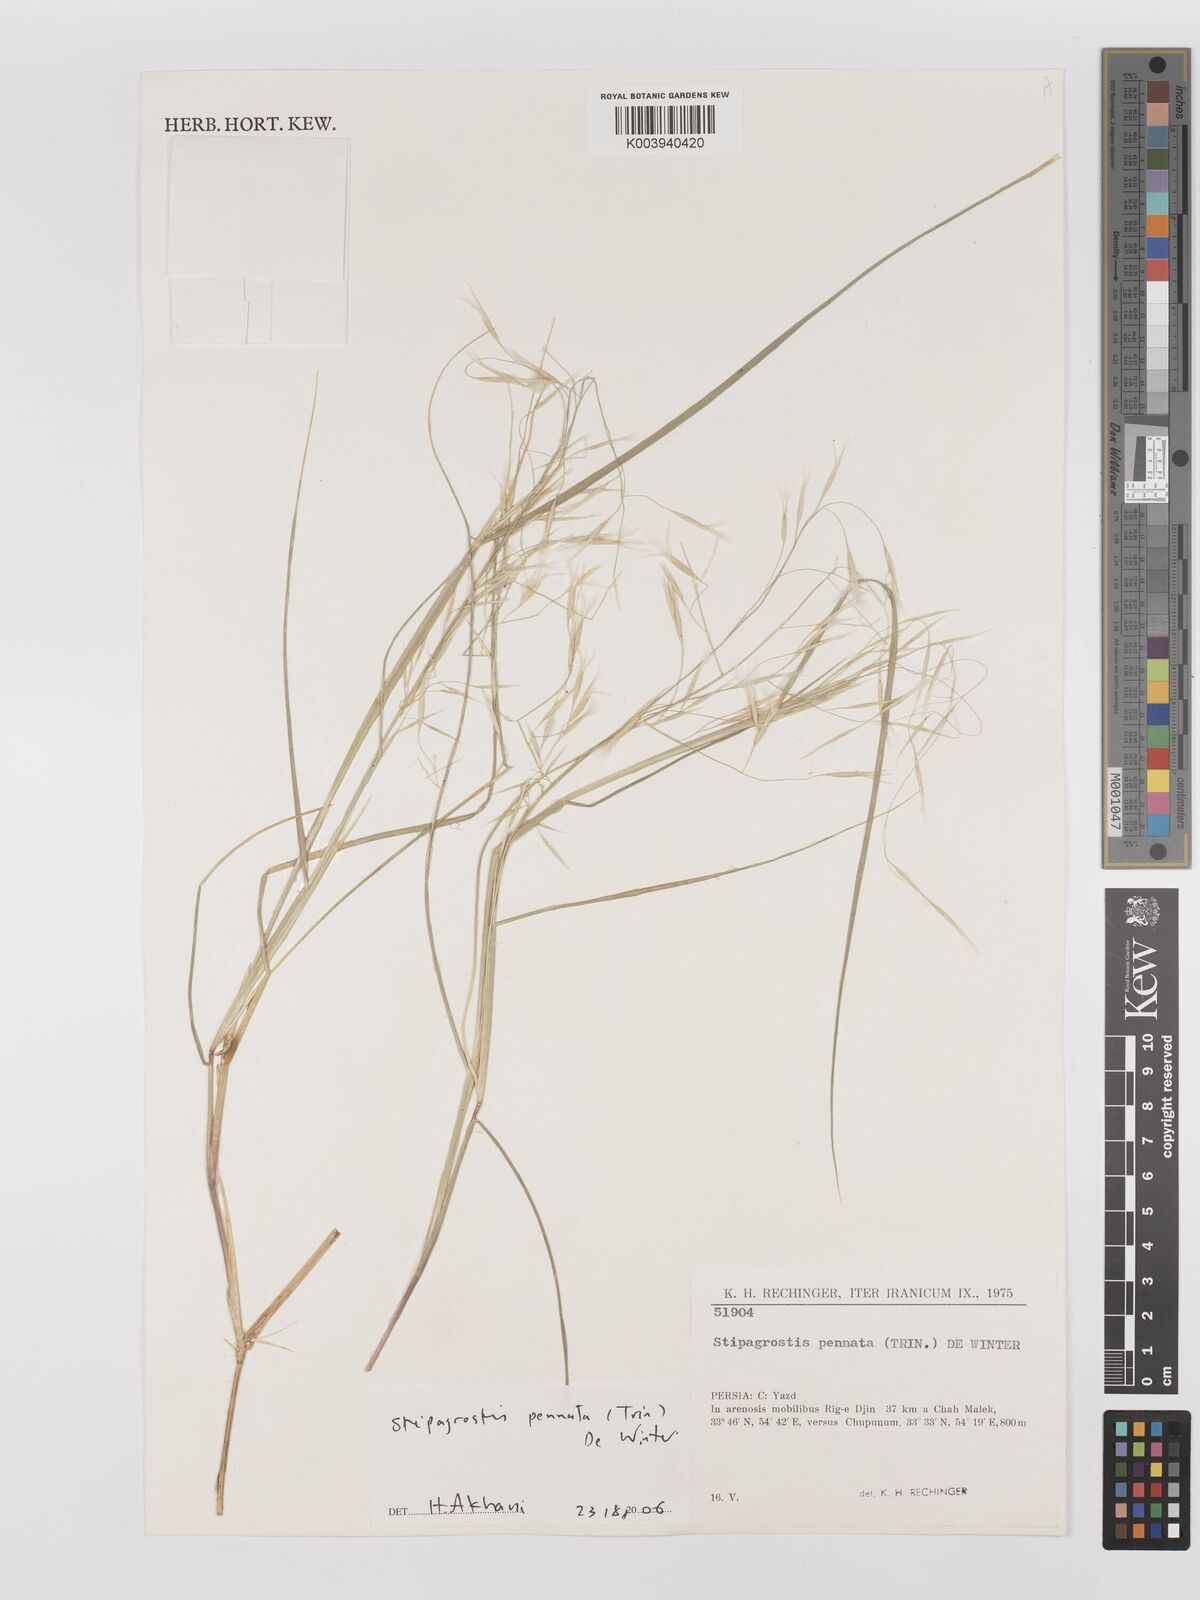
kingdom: Plantae
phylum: Tracheophyta
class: Liliopsida
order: Poales
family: Poaceae
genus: Stipagrostis
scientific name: Stipagrostis pennata
